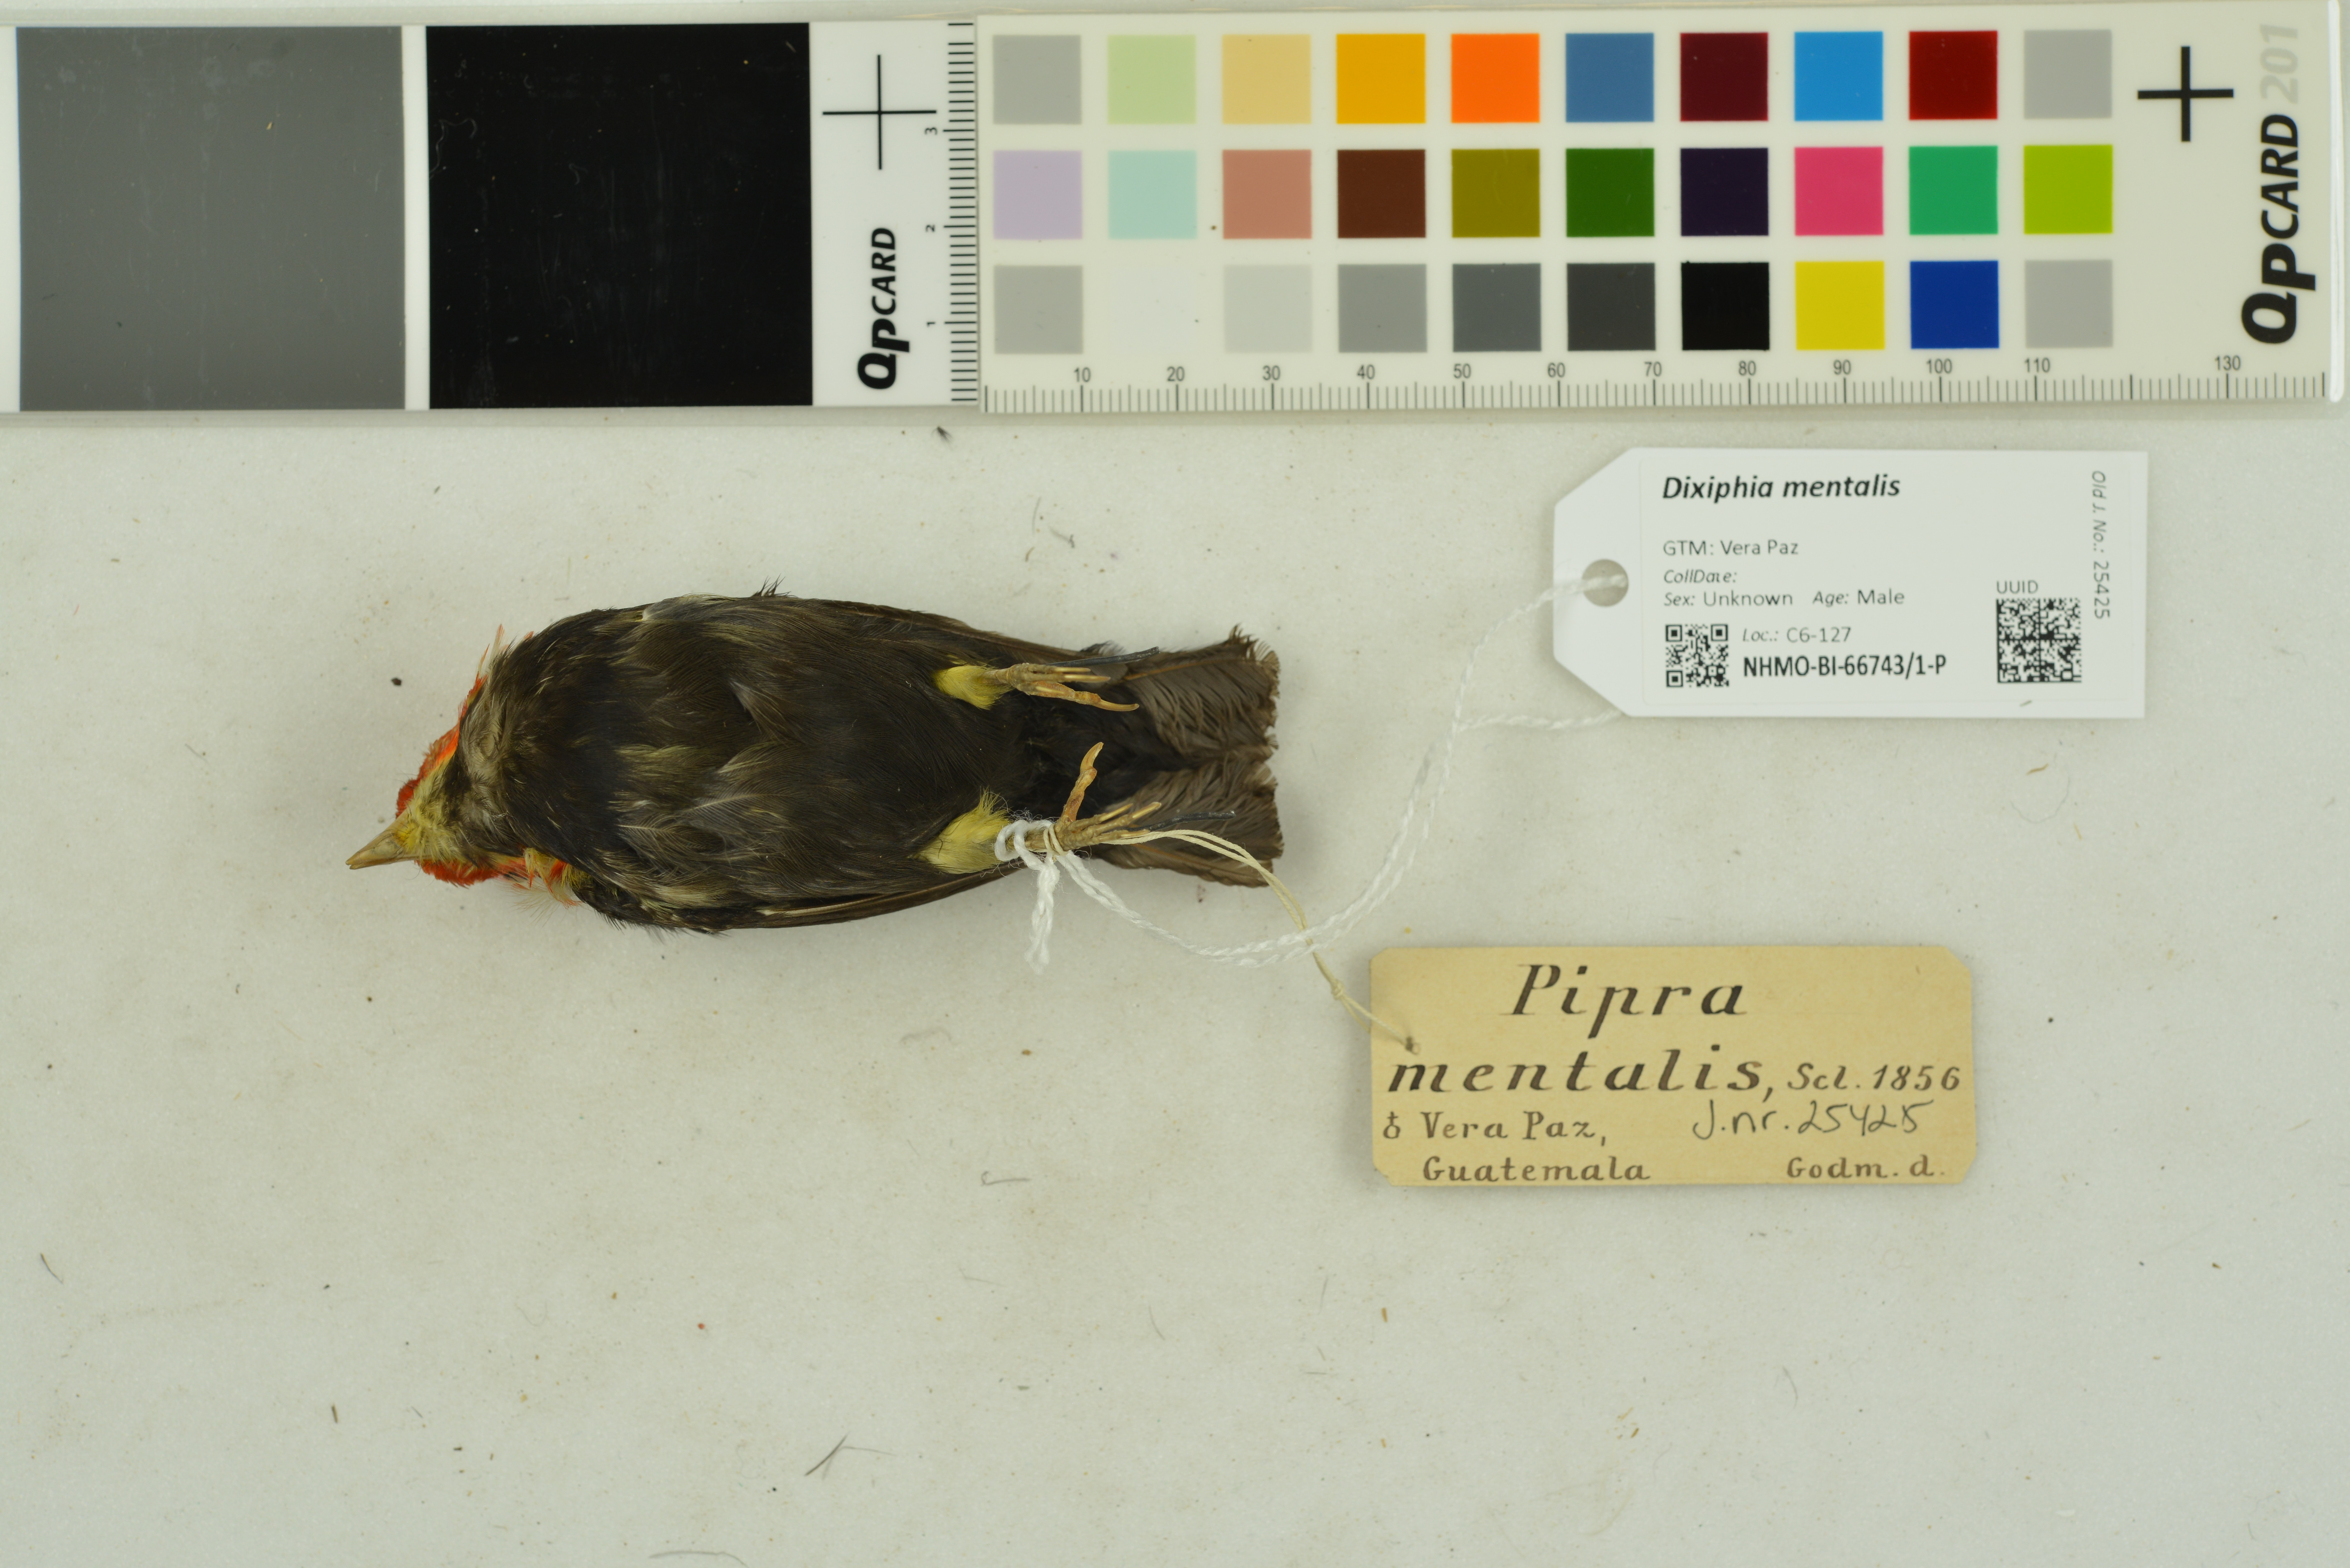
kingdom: Animalia
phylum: Chordata
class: Aves
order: Passeriformes
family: Pipridae
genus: Pipra
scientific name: Pipra mentalis
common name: Red-capped manakin
